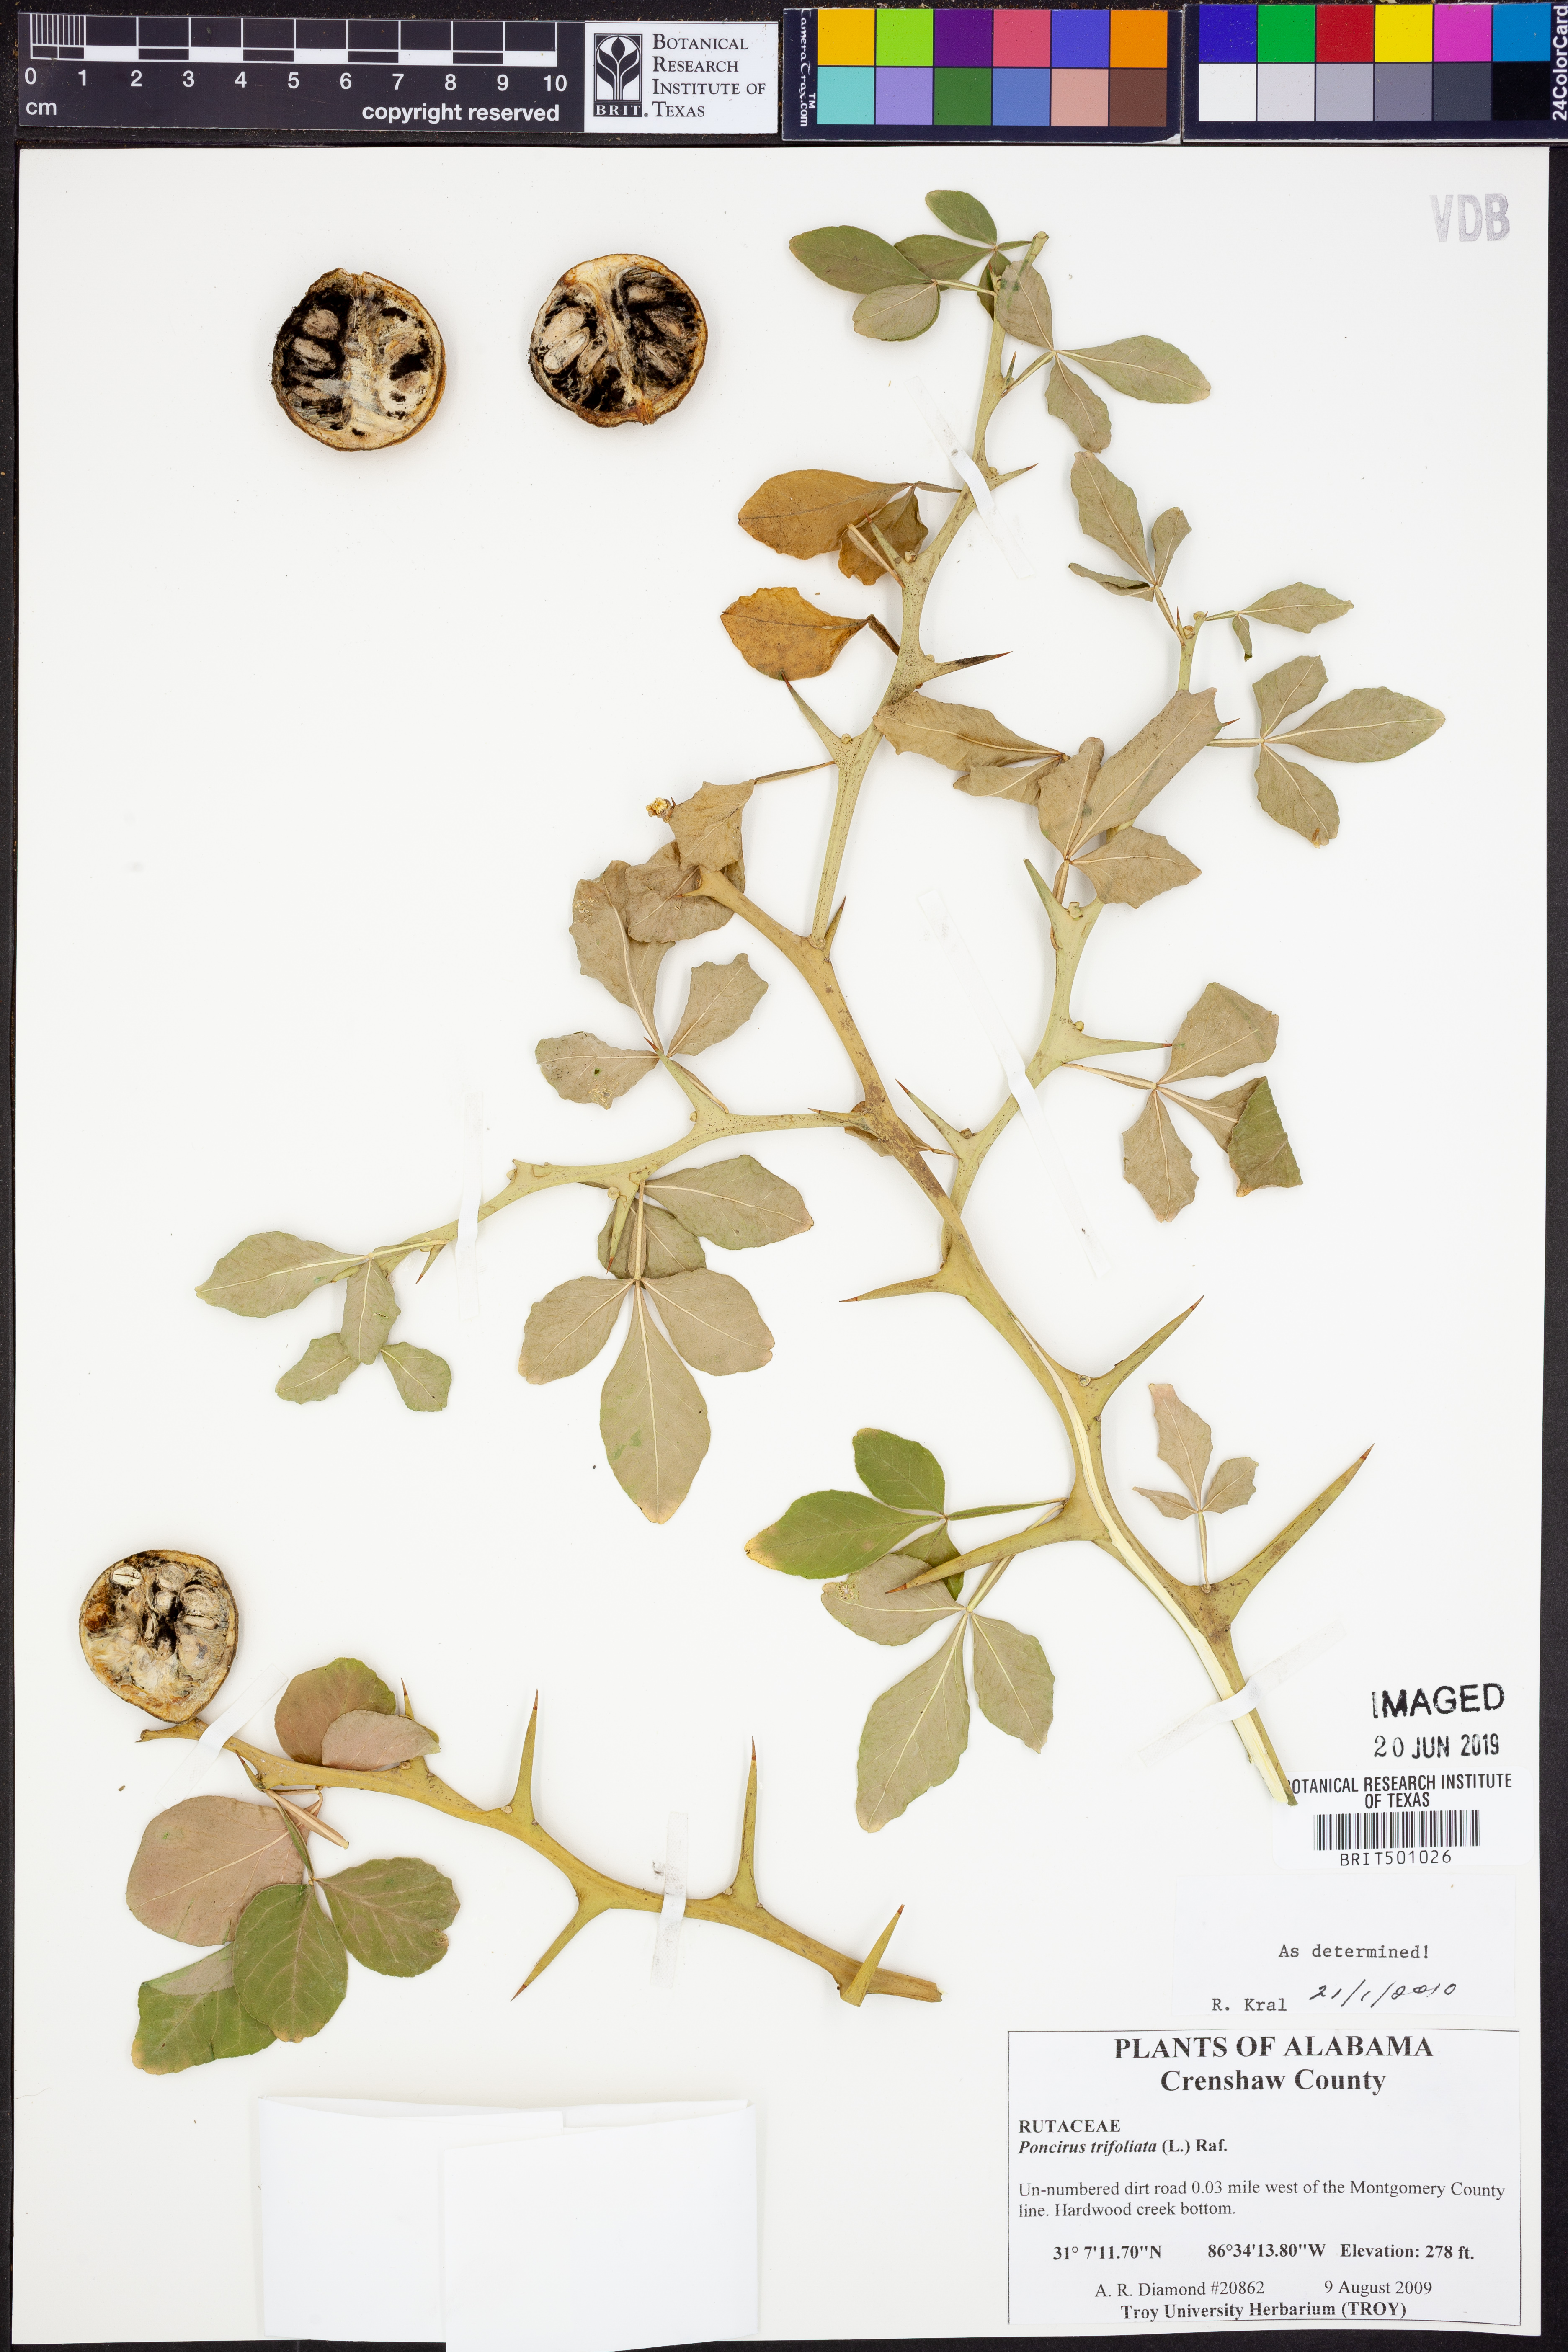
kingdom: Plantae
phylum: Tracheophyta
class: Magnoliopsida
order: Sapindales
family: Rutaceae
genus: Citrus
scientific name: Citrus trifoliata
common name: Japanese bitter-orange
